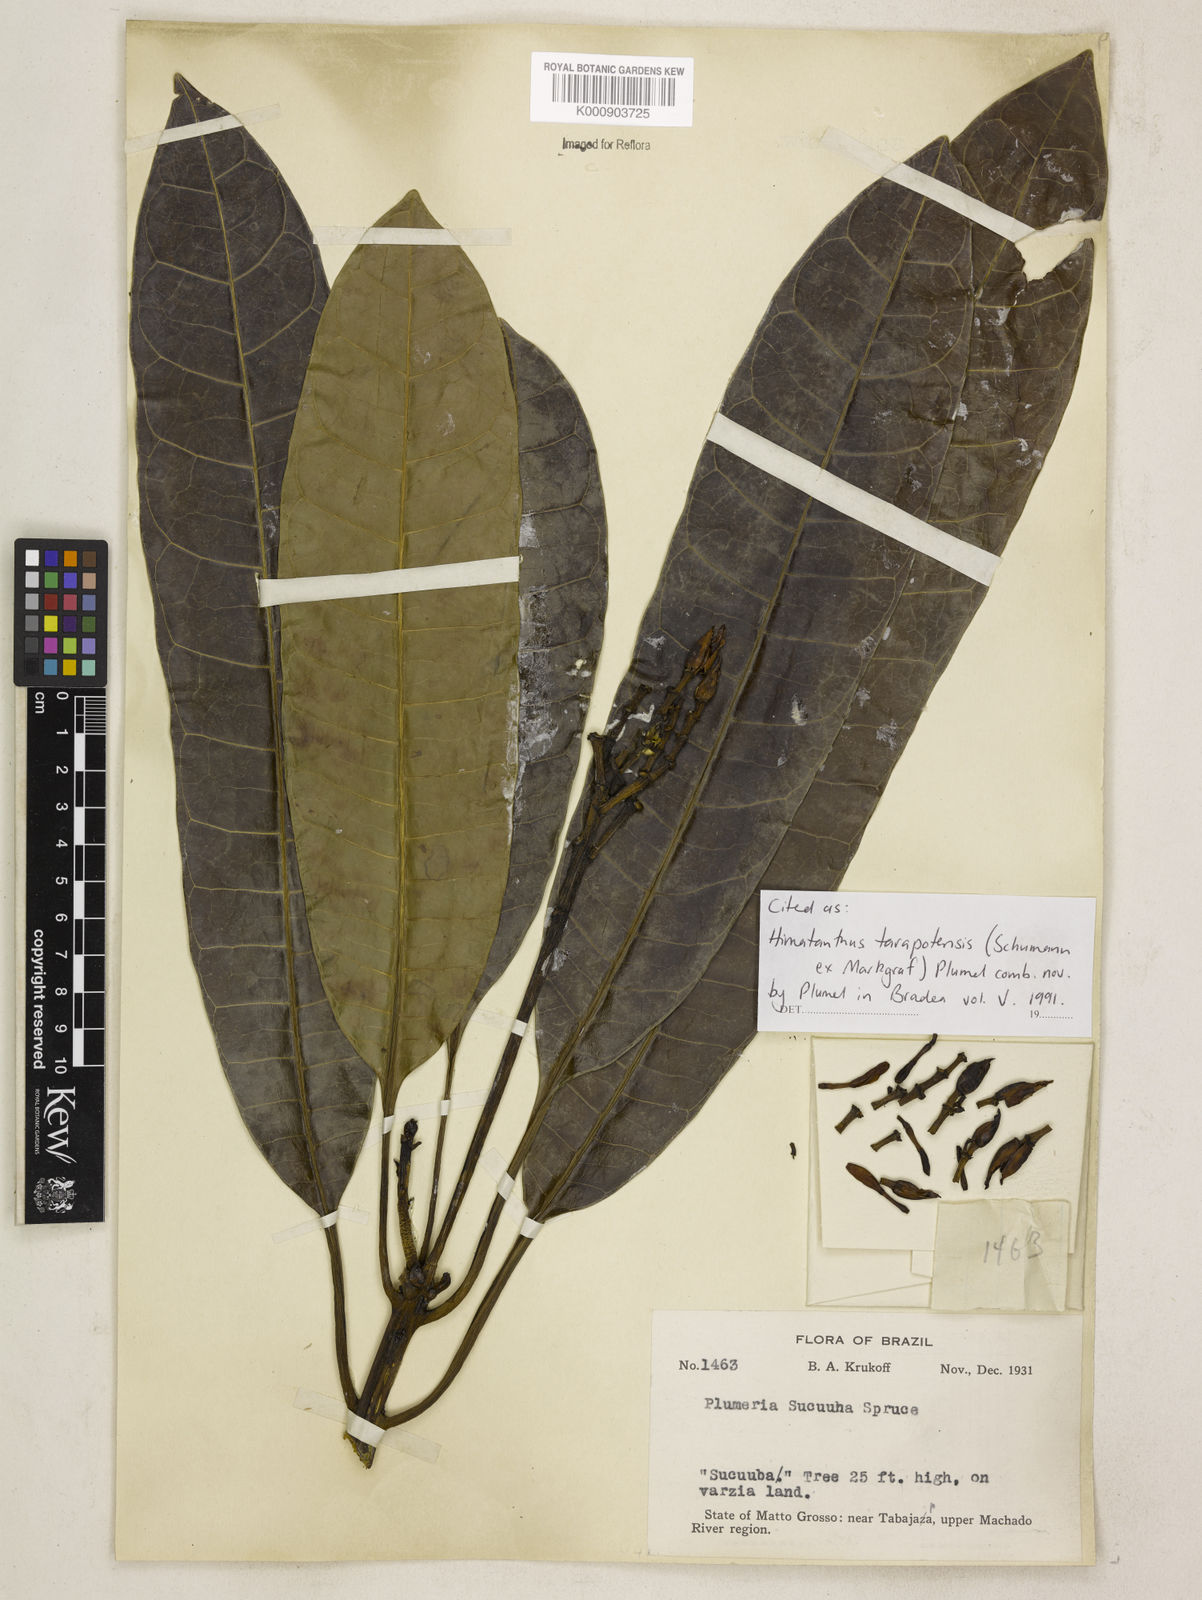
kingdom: Plantae
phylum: Tracheophyta
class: Magnoliopsida
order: Gentianales
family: Apocynaceae
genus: Himatanthus
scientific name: Himatanthus tarapotensis
